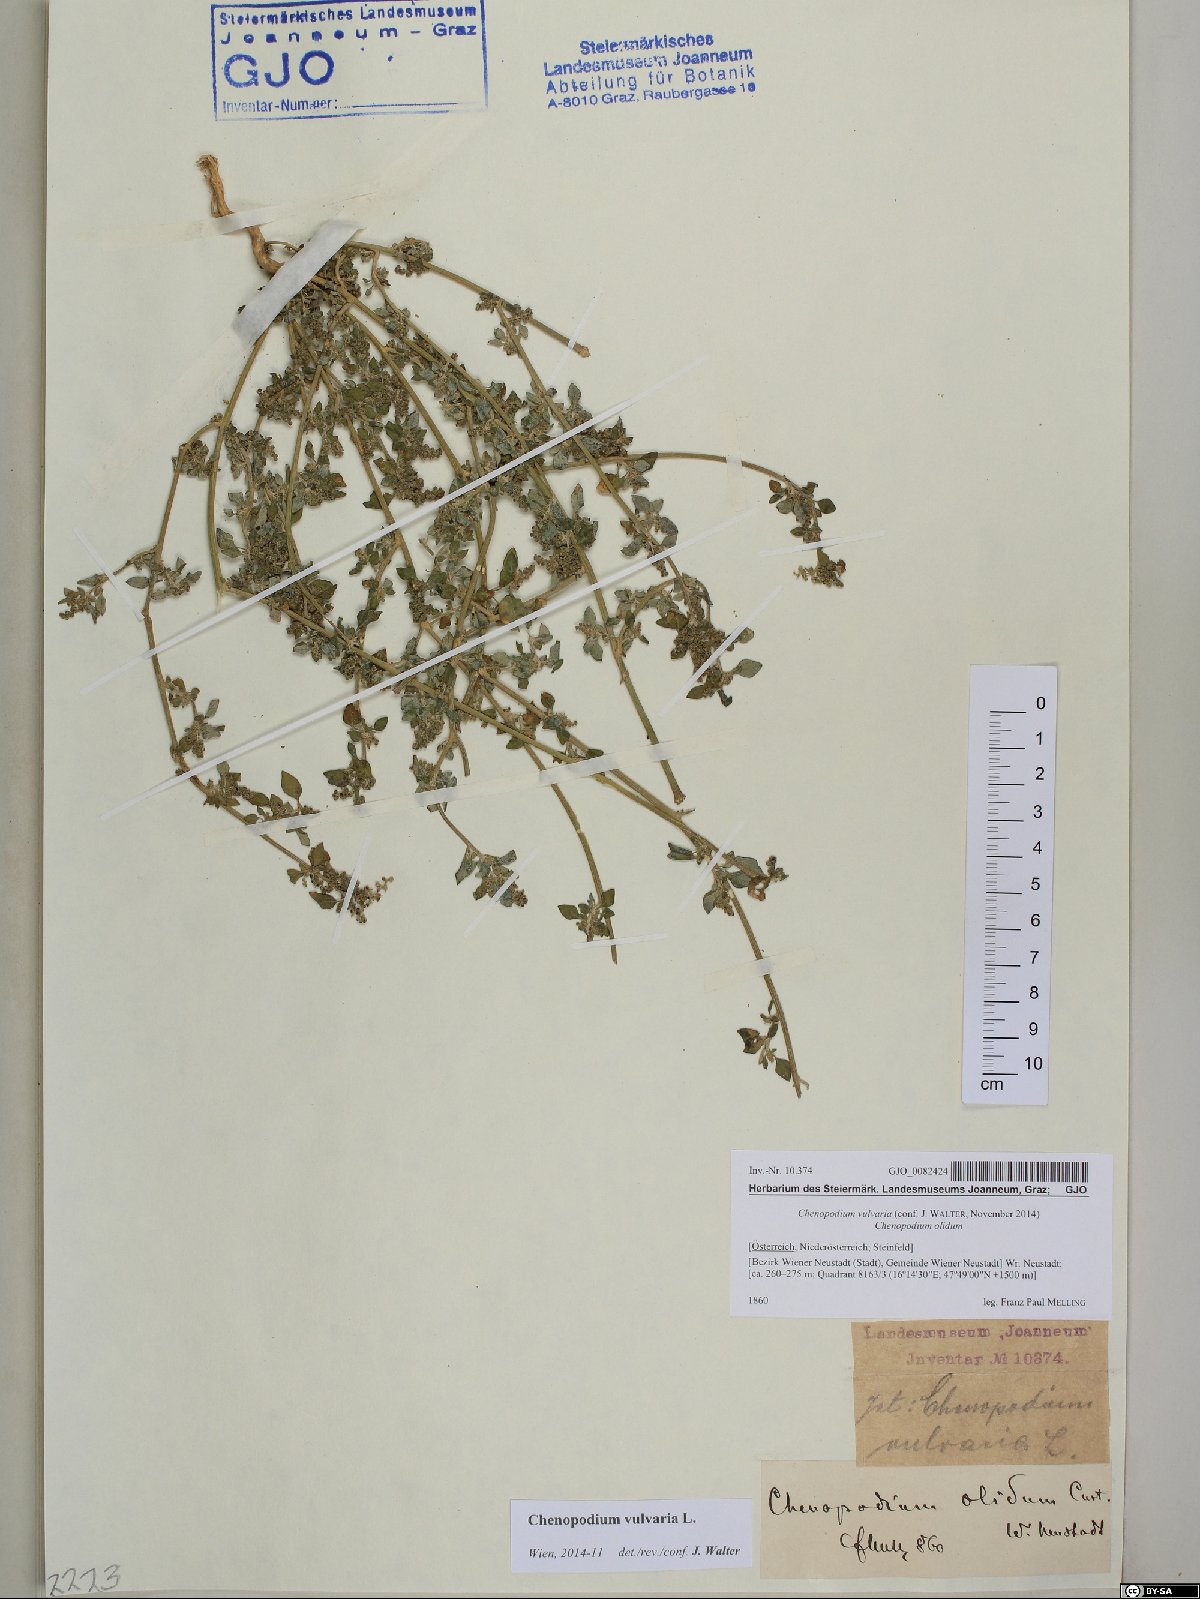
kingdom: Plantae
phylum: Tracheophyta
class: Magnoliopsida
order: Caryophyllales
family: Amaranthaceae
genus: Chenopodium
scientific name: Chenopodium vulvaria
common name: Stinking goosefoot
